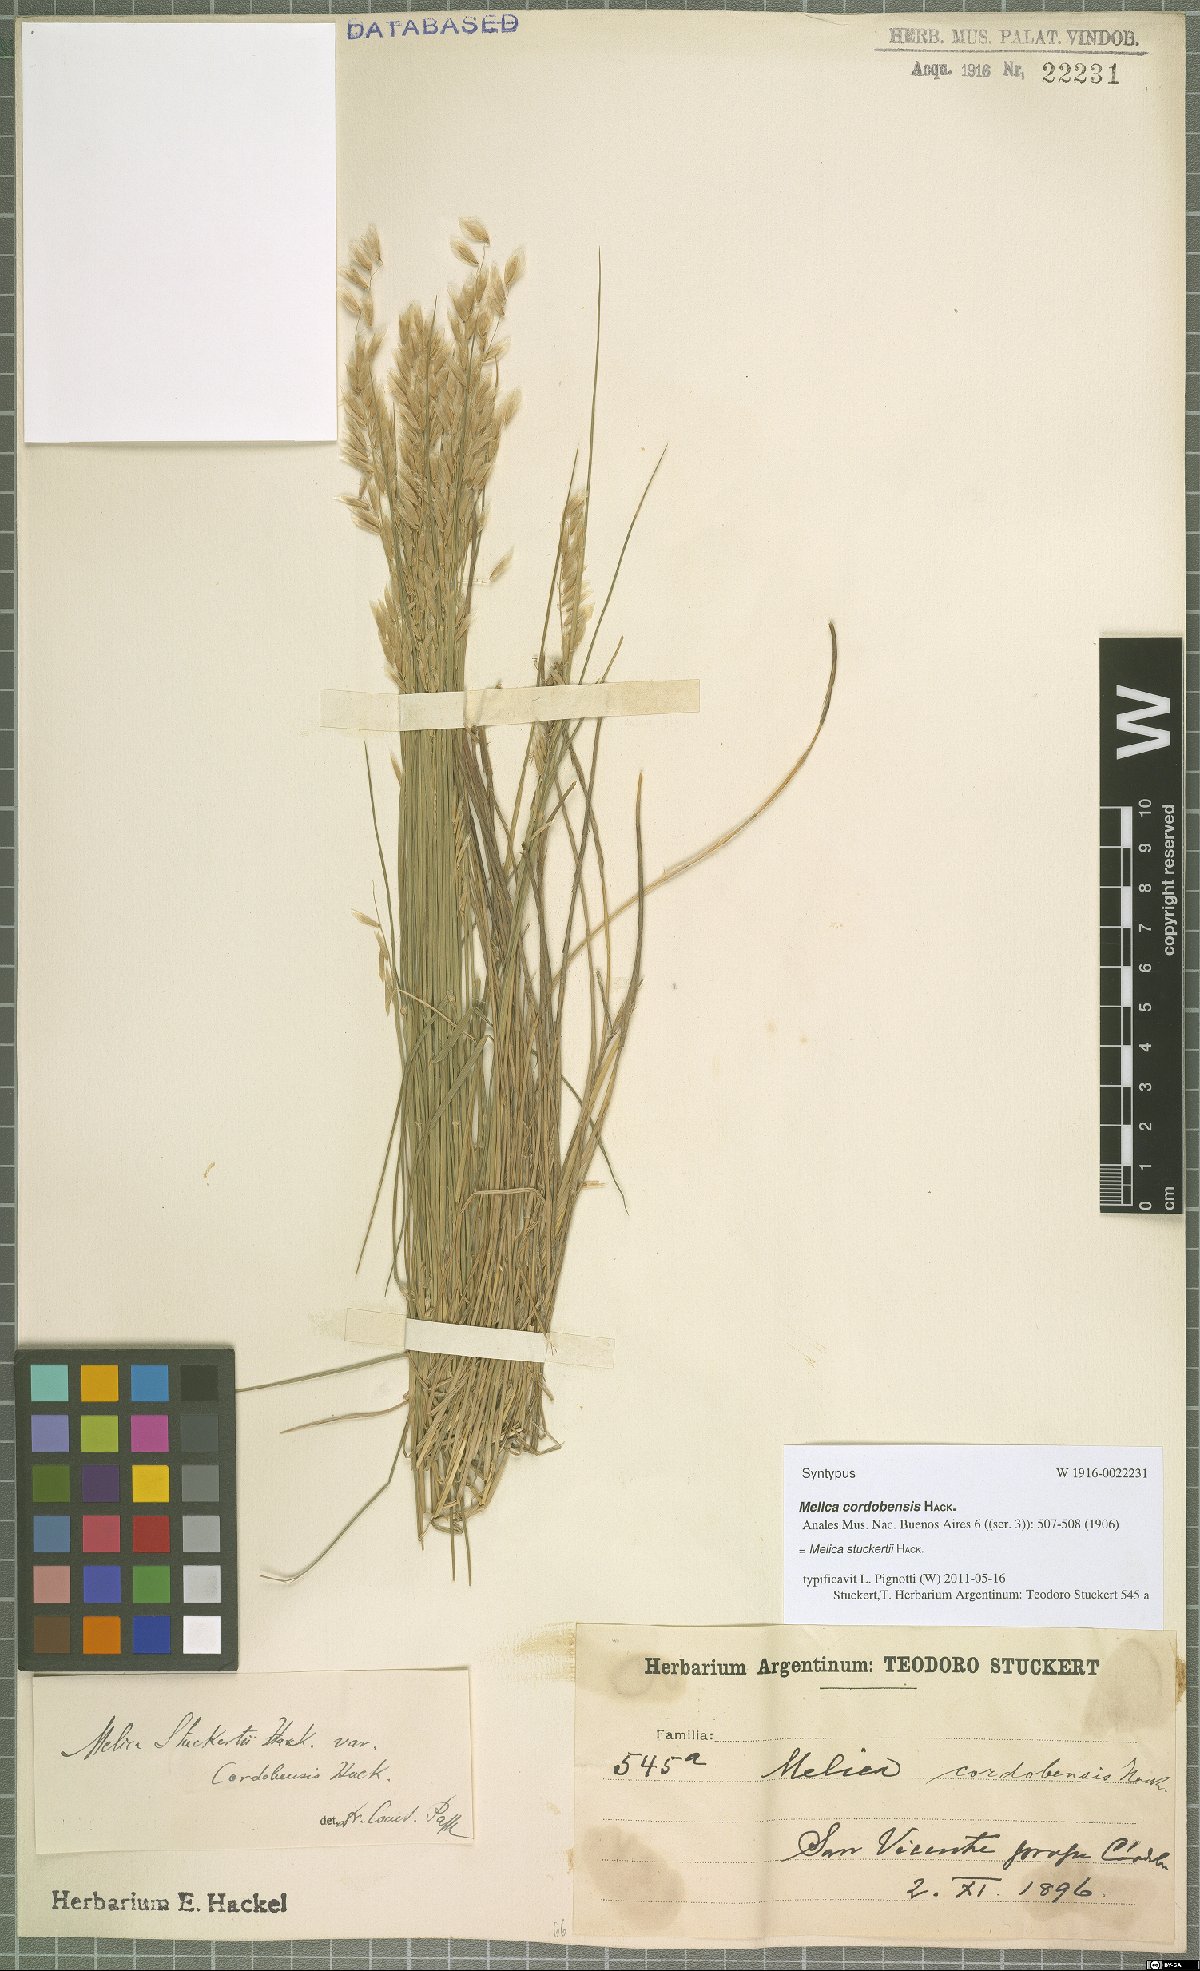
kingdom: Plantae
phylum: Tracheophyta
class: Liliopsida
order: Poales
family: Poaceae
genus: Melica
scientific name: Melica stuckertii
